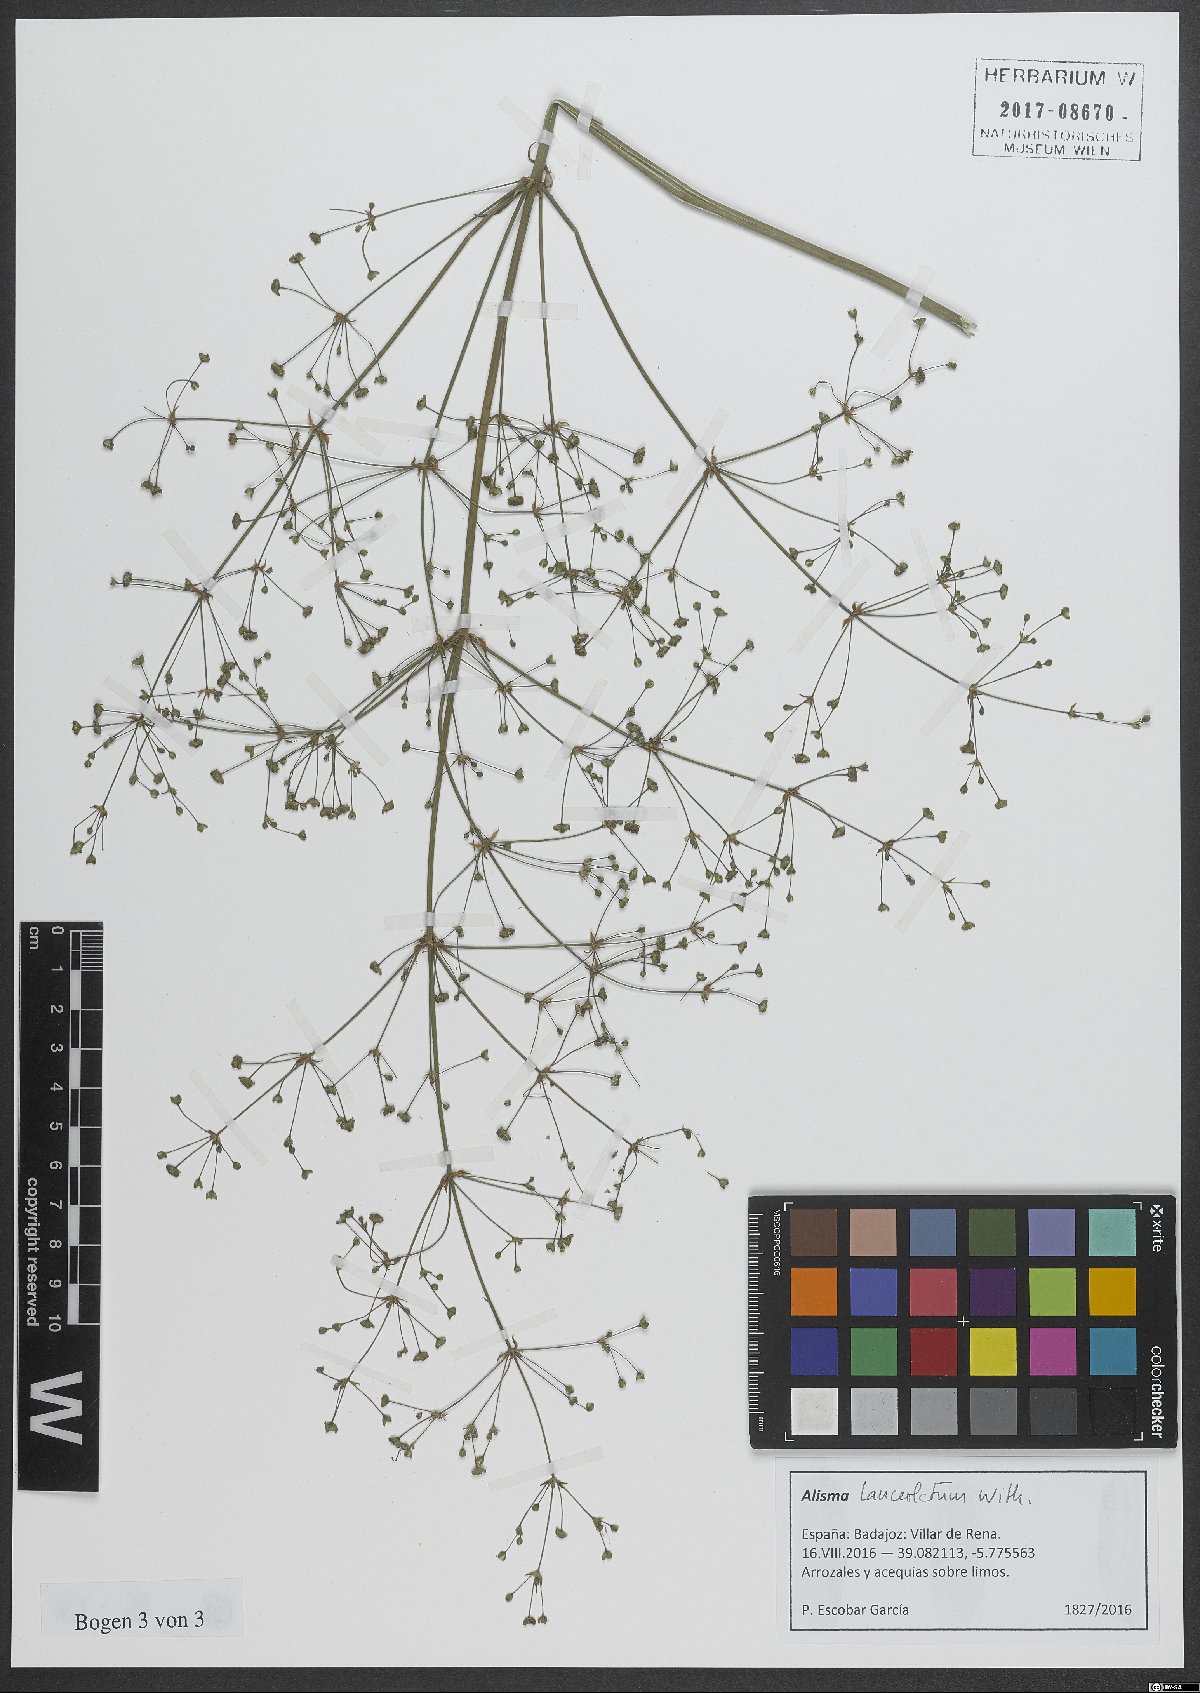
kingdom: Plantae
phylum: Tracheophyta
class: Liliopsida
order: Alismatales
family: Alismataceae
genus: Alisma
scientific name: Alisma lanceolatum
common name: Narrow-leaved water-plantain
